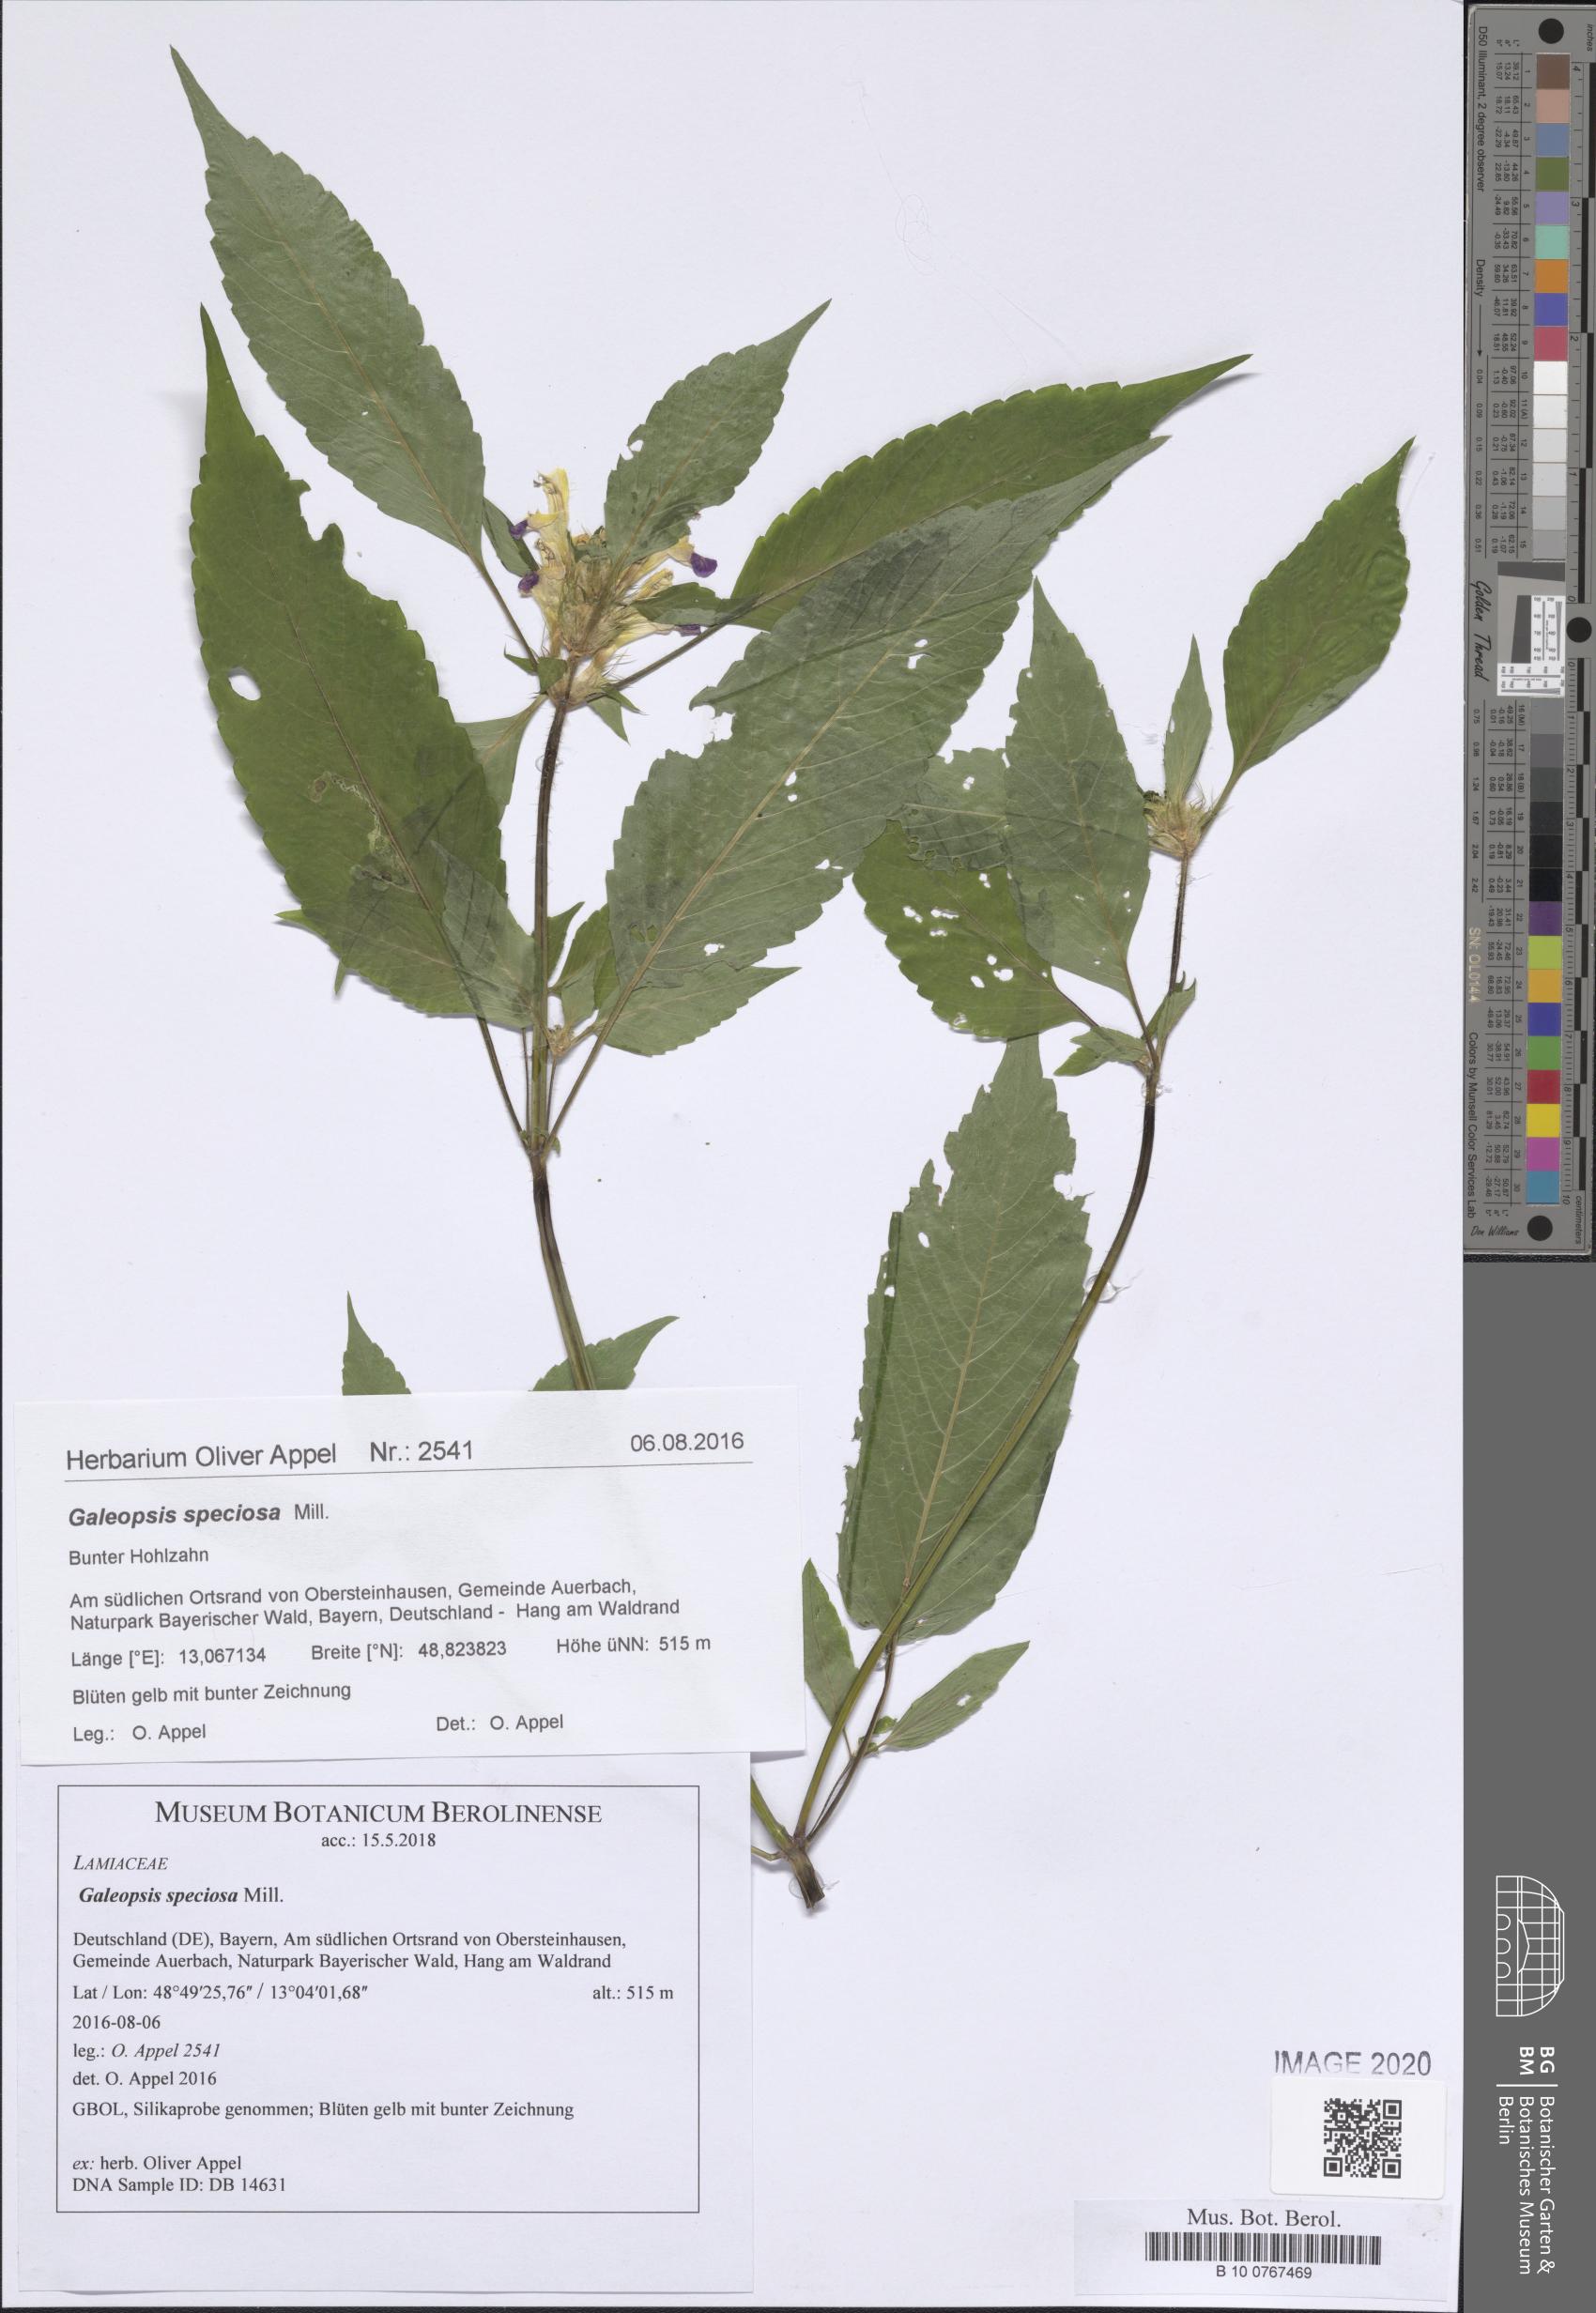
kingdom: Plantae
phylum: Tracheophyta
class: Magnoliopsida
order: Lamiales
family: Lamiaceae
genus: Galeopsis
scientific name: Galeopsis speciosa
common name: Large-flowered hemp-nettle
